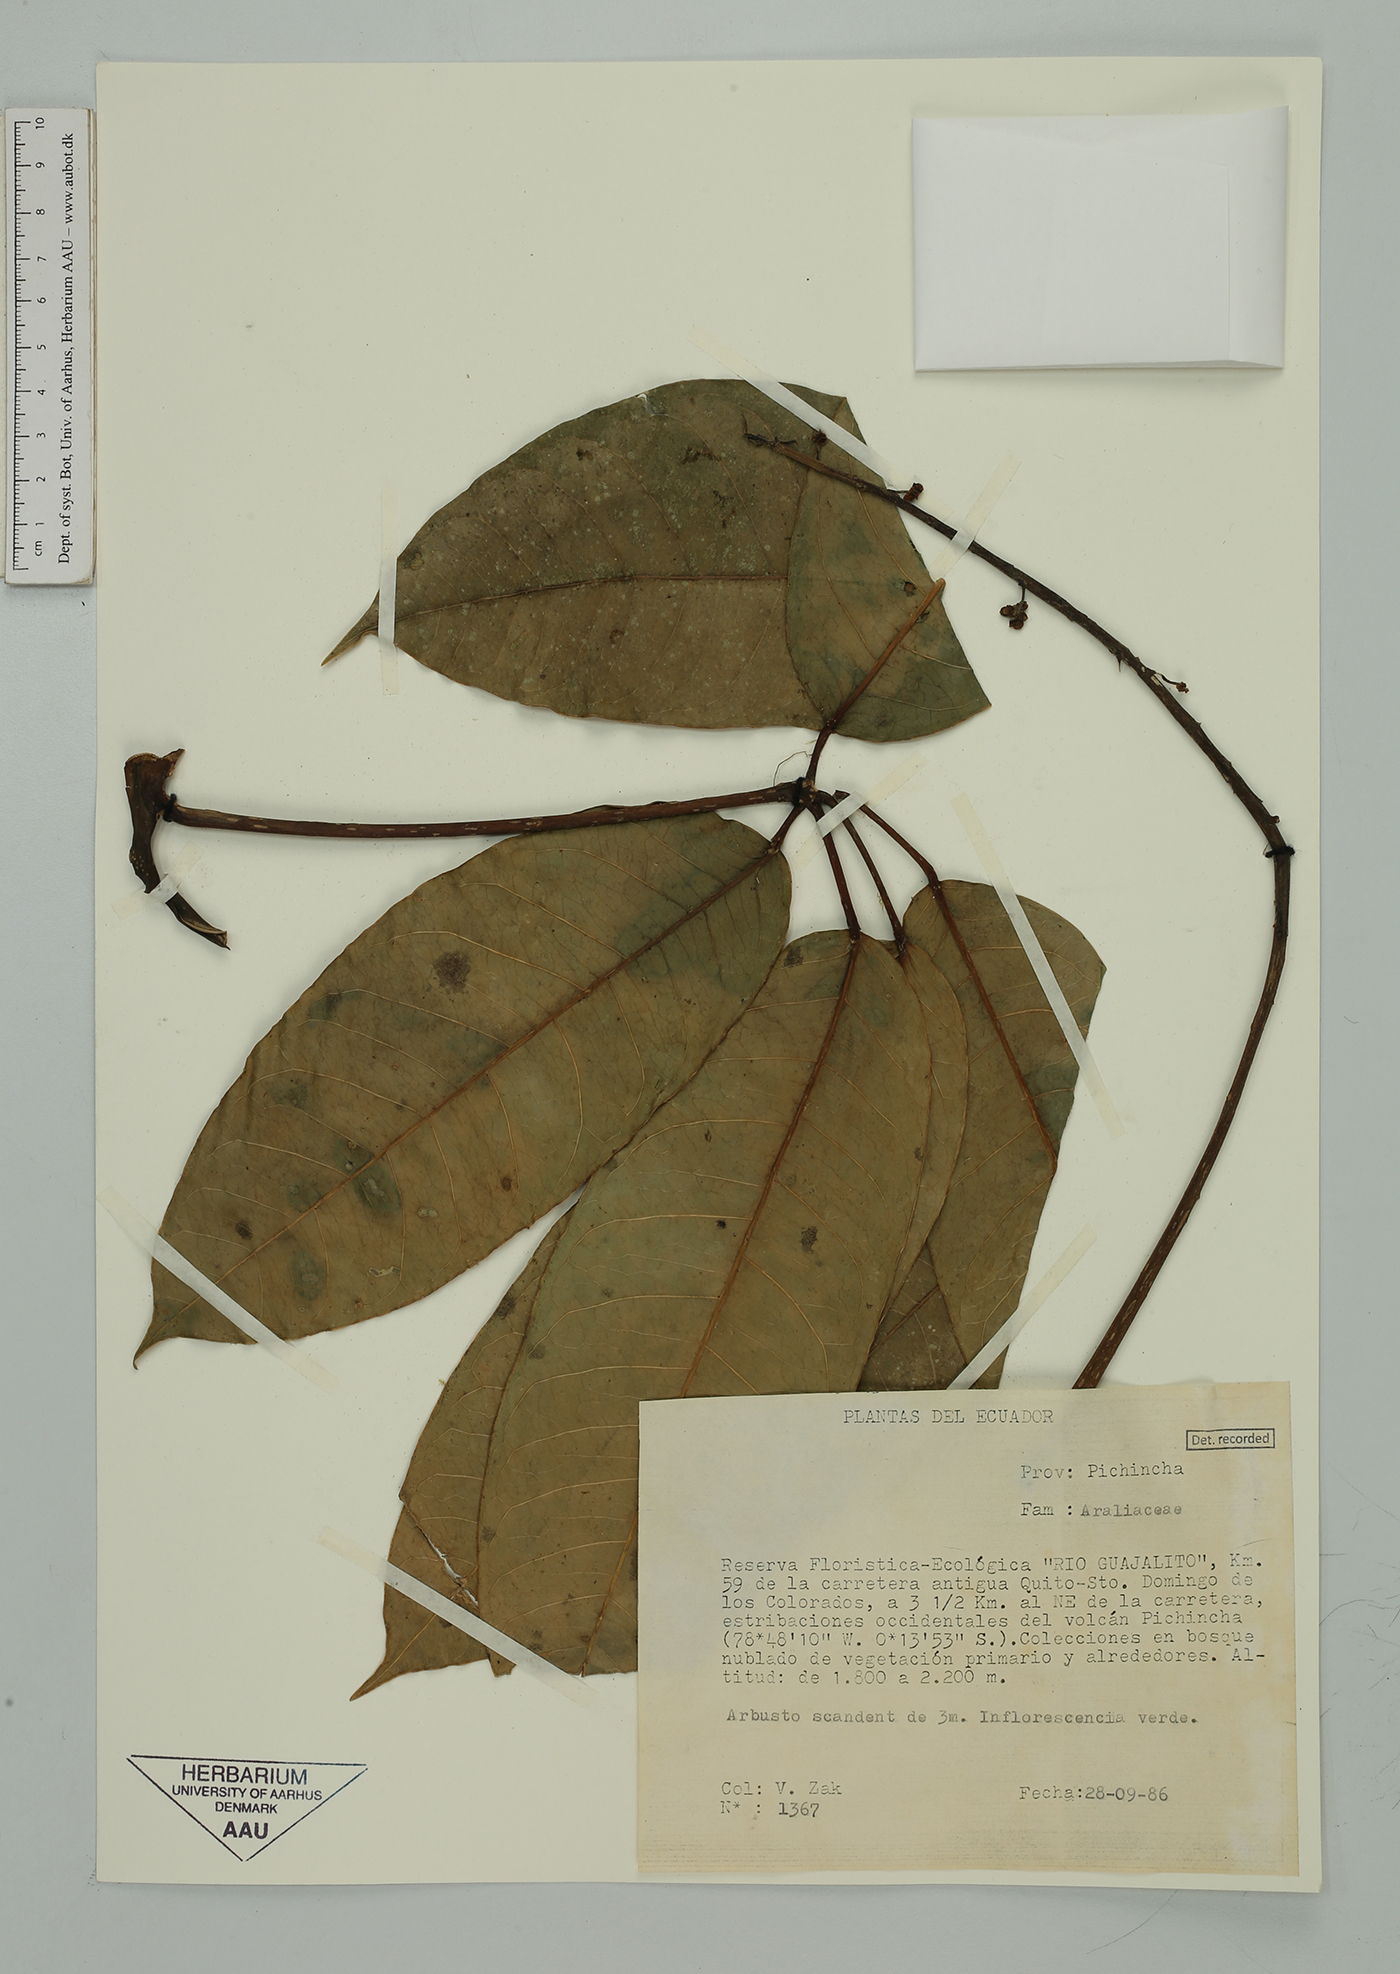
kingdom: Plantae
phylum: Tracheophyta
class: Magnoliopsida
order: Apiales
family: Araliaceae
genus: Sciodaphyllum
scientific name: Sciodaphyllum
